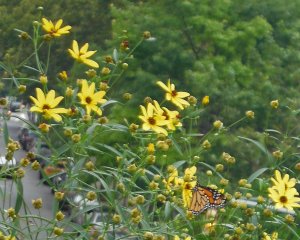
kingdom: Animalia
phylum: Arthropoda
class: Insecta
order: Lepidoptera
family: Nymphalidae
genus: Danaus
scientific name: Danaus plexippus
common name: Monarch
